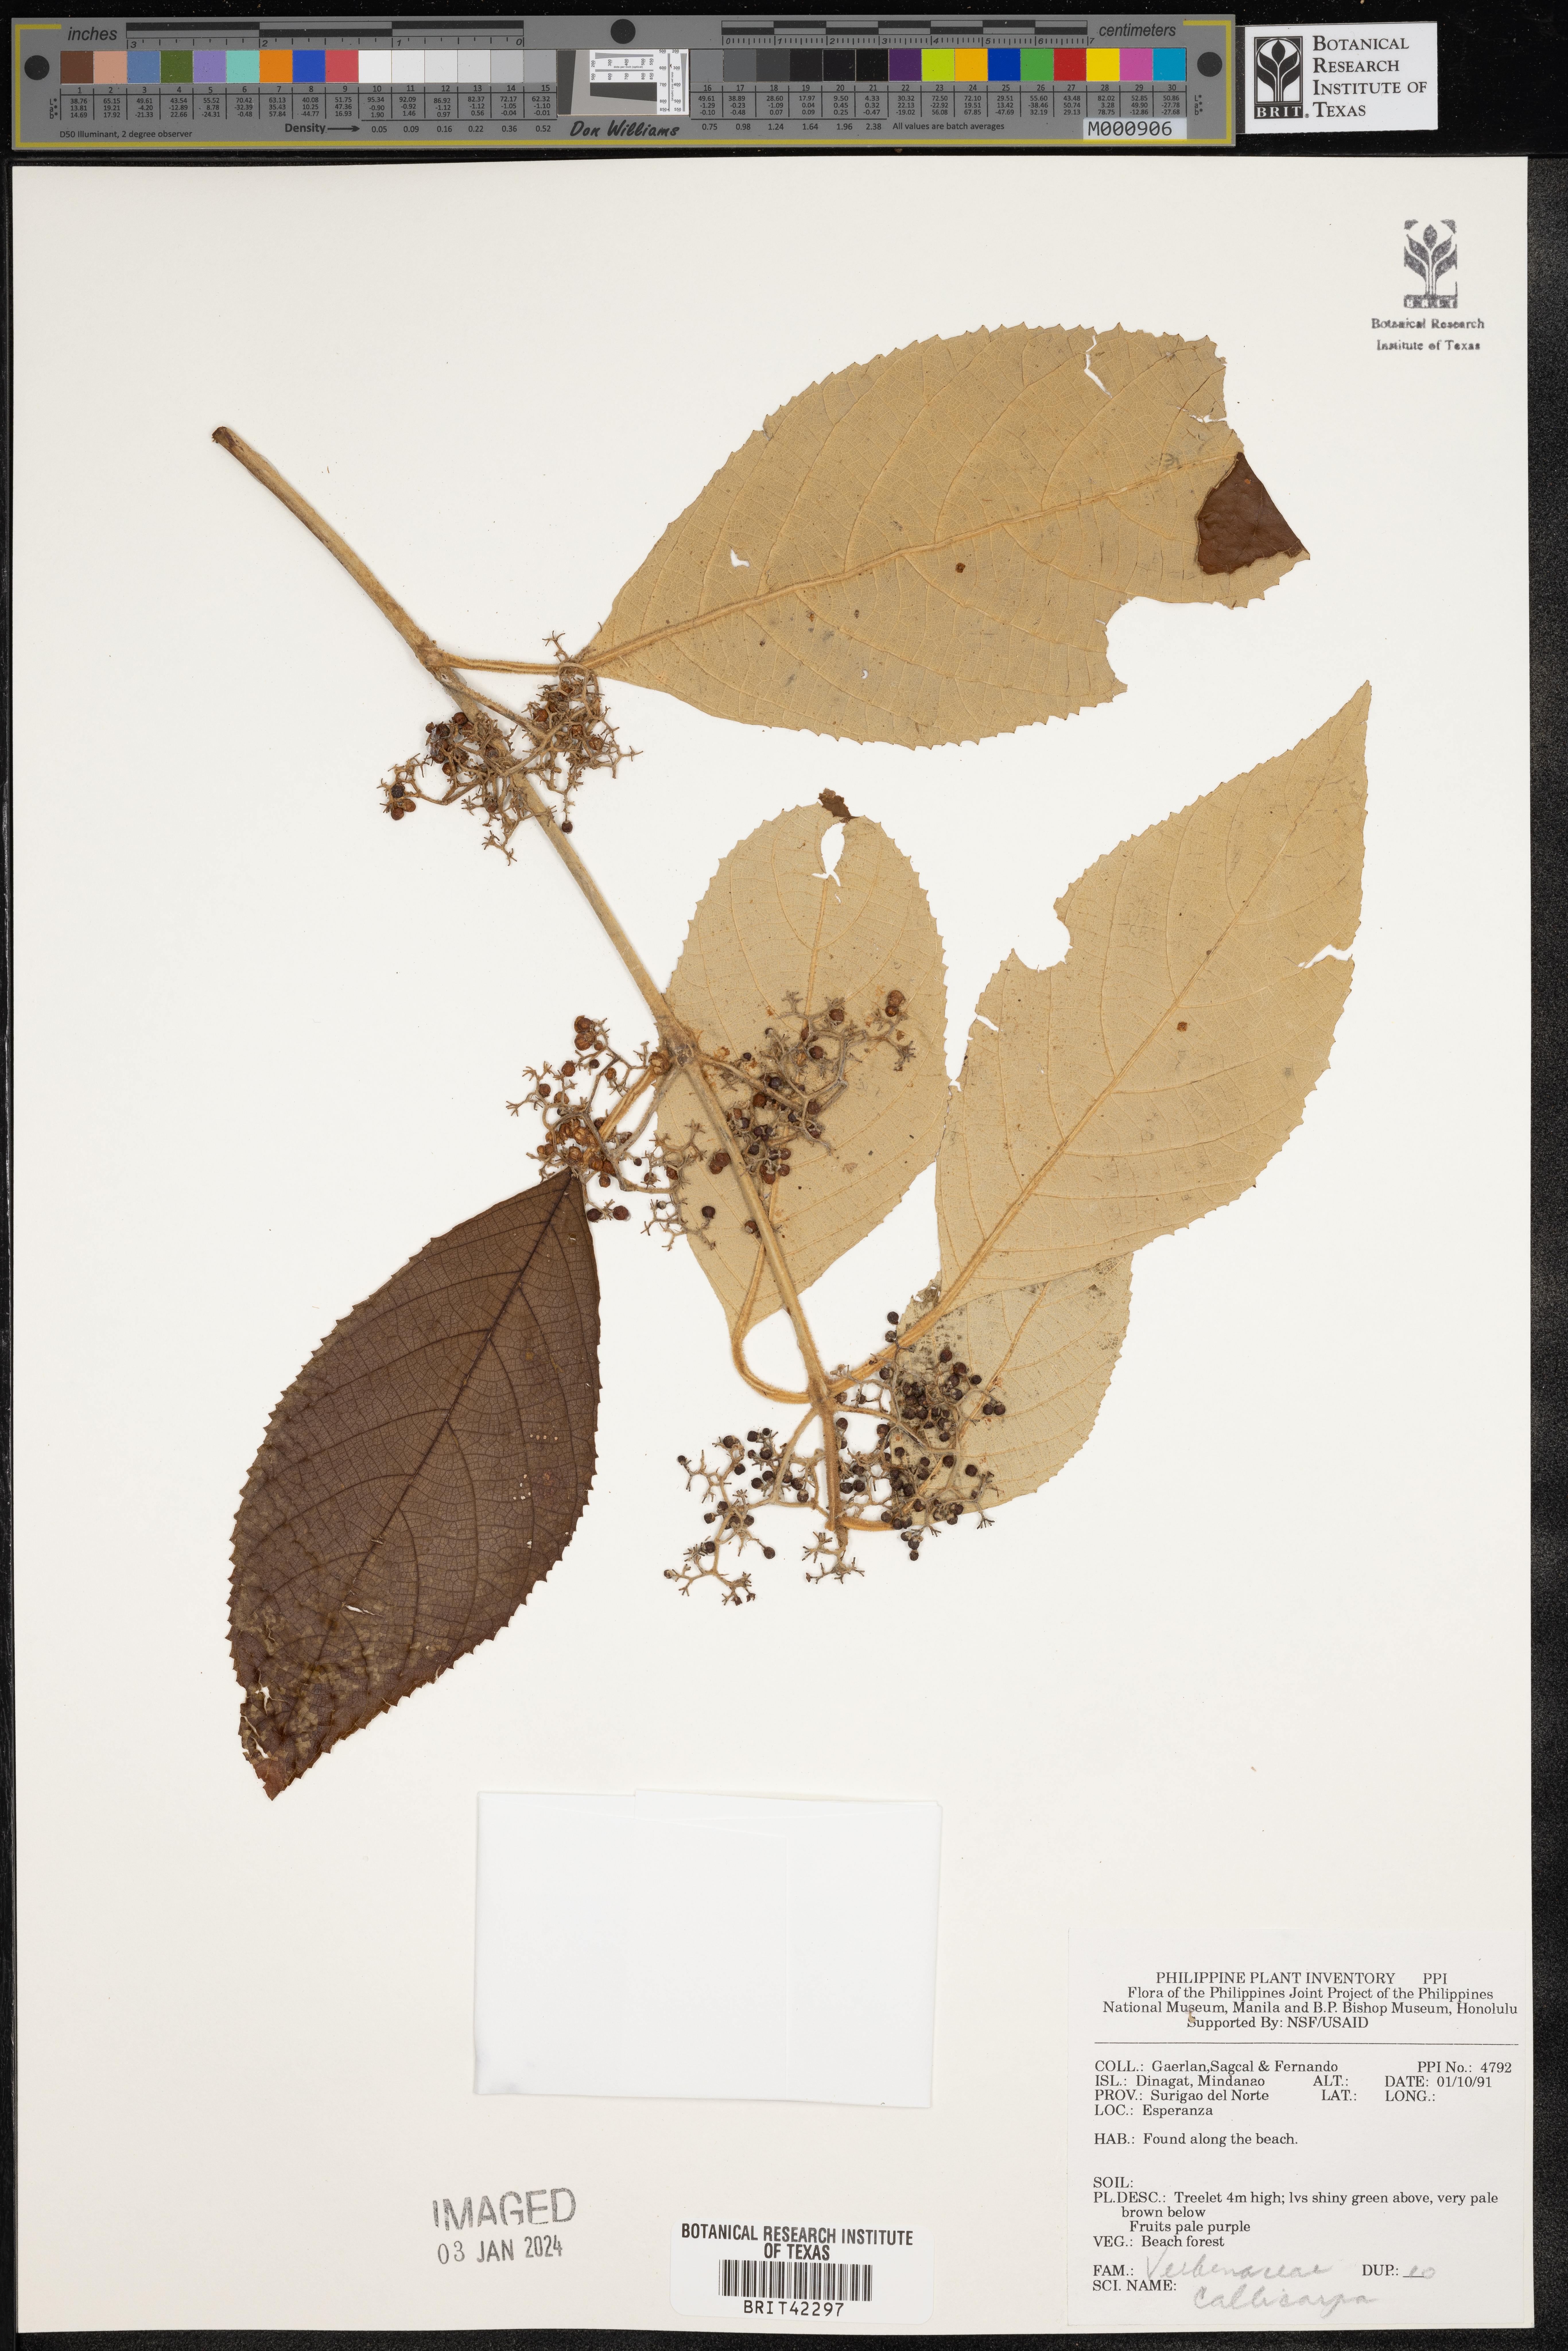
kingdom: Plantae
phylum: Tracheophyta
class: Magnoliopsida
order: Lamiales
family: Lamiaceae
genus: Callicarpa
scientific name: Callicarpa
